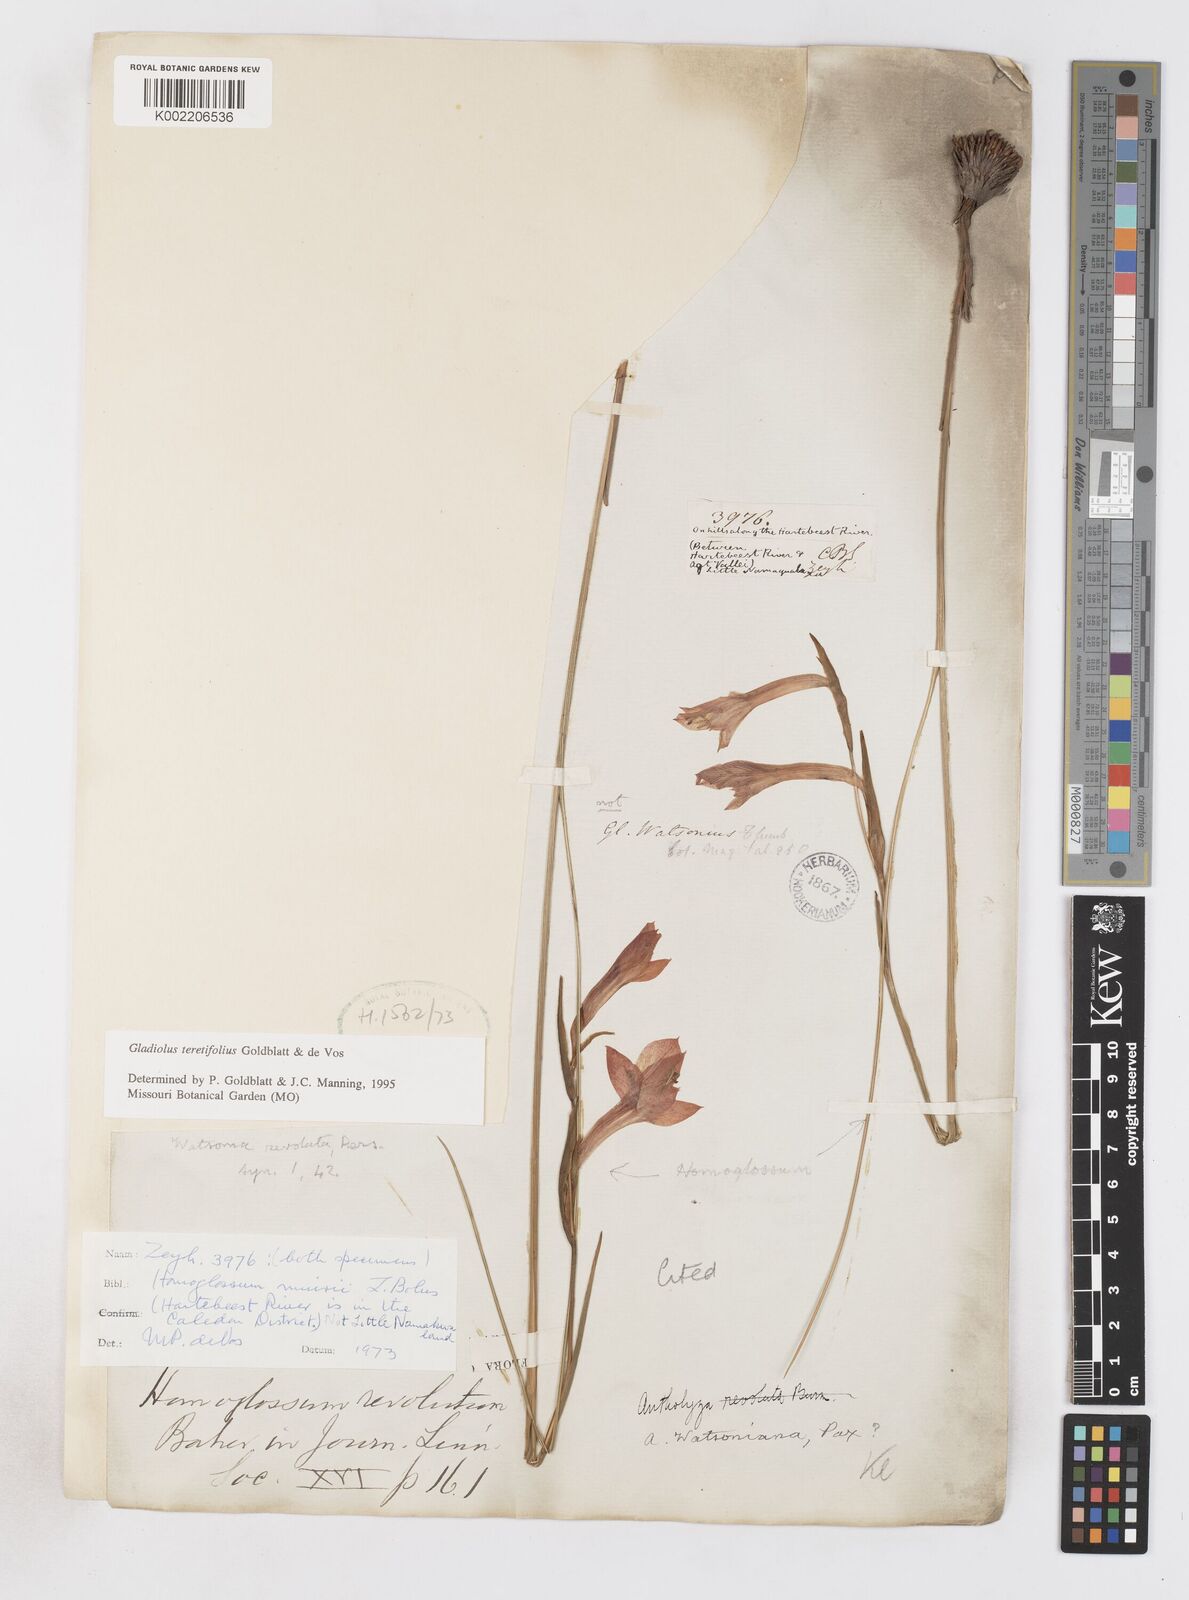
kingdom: Plantae
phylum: Tracheophyta
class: Liliopsida
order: Asparagales
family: Iridaceae
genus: Gladiolus
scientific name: Gladiolus involutus
